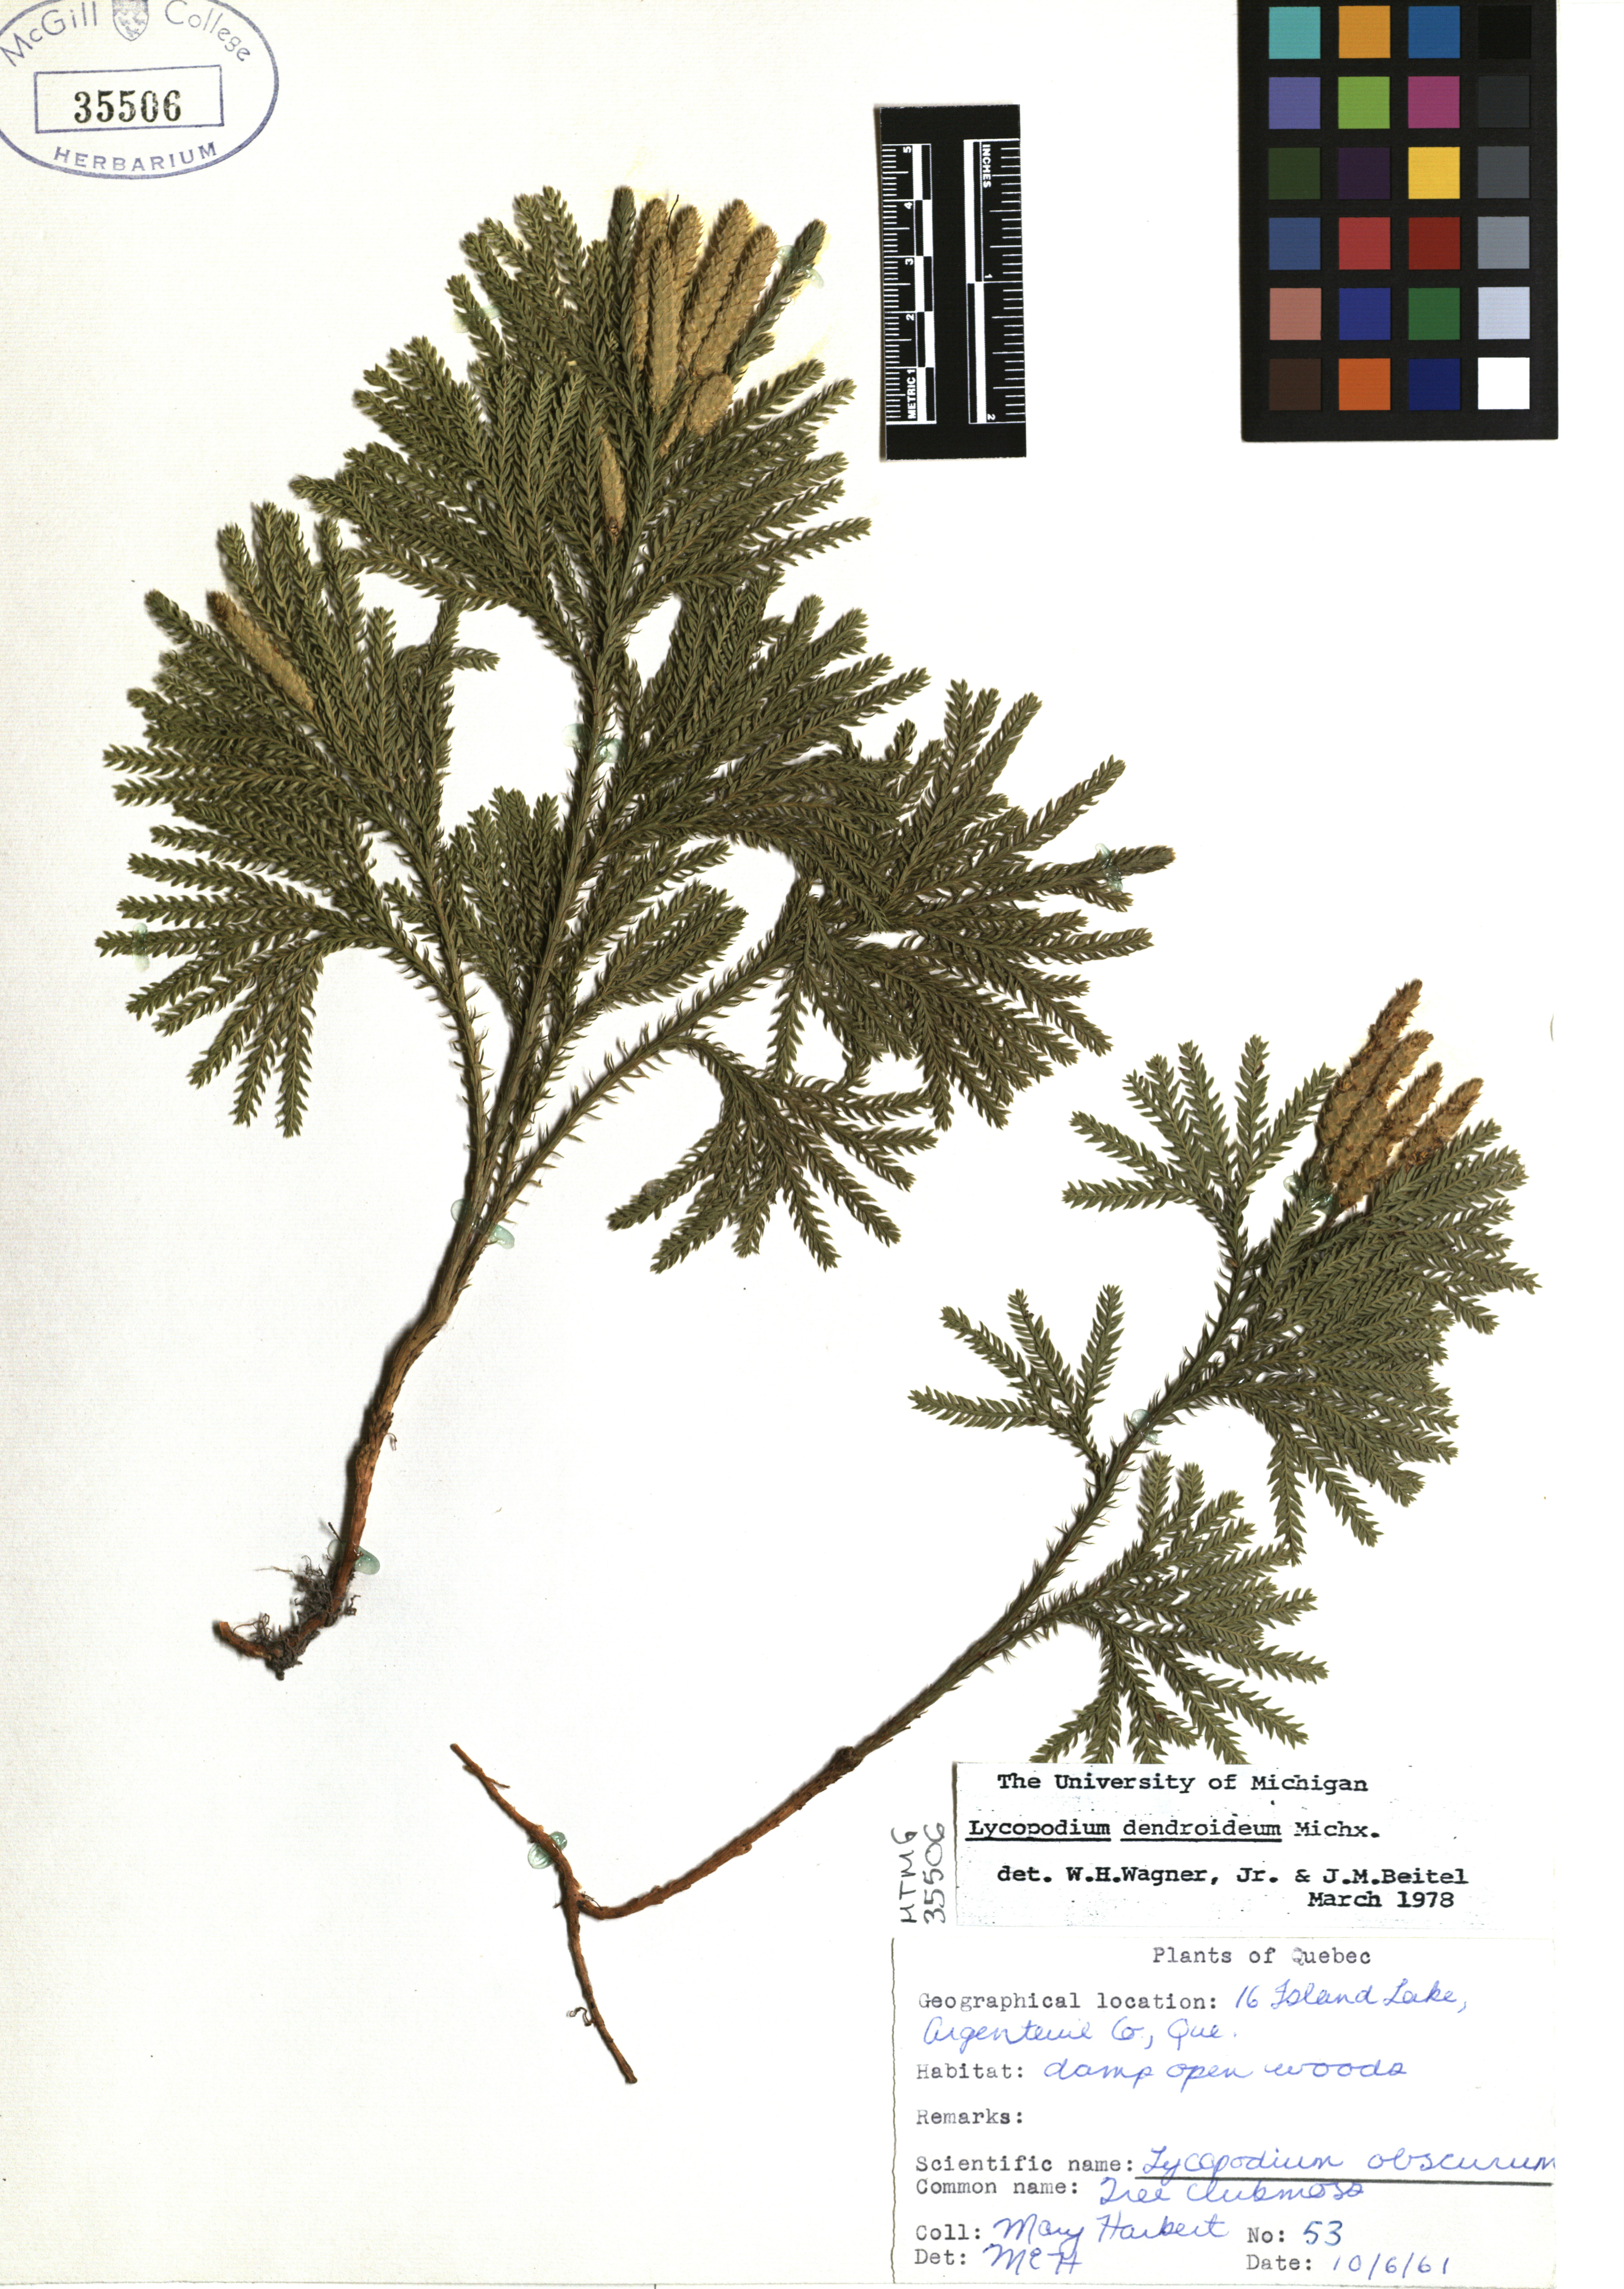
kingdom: Plantae
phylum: Tracheophyta
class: Lycopodiopsida
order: Lycopodiales
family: Lycopodiaceae
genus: Dendrolycopodium
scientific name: Dendrolycopodium dendroideum
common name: Northern tree-clubmoss
